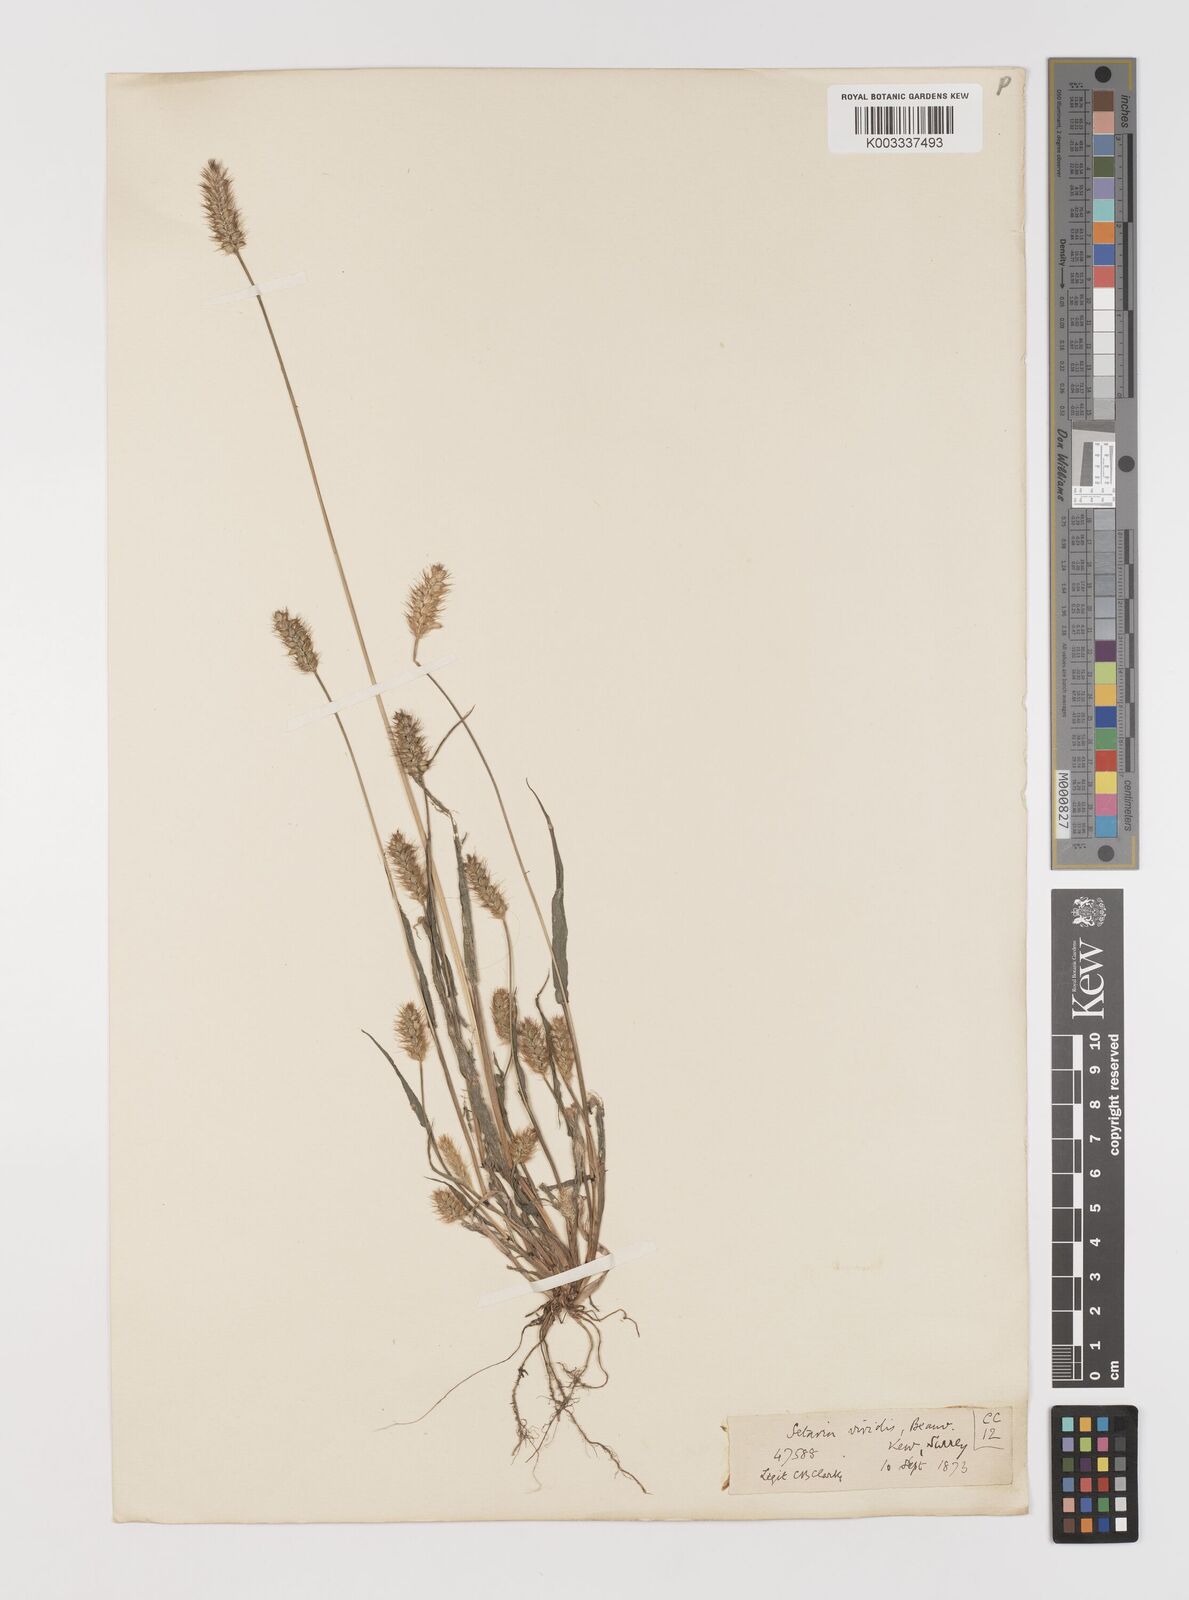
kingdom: Plantae
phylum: Tracheophyta
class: Liliopsida
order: Poales
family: Poaceae
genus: Setaria
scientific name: Setaria pumila
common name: Yellow bristle-grass
